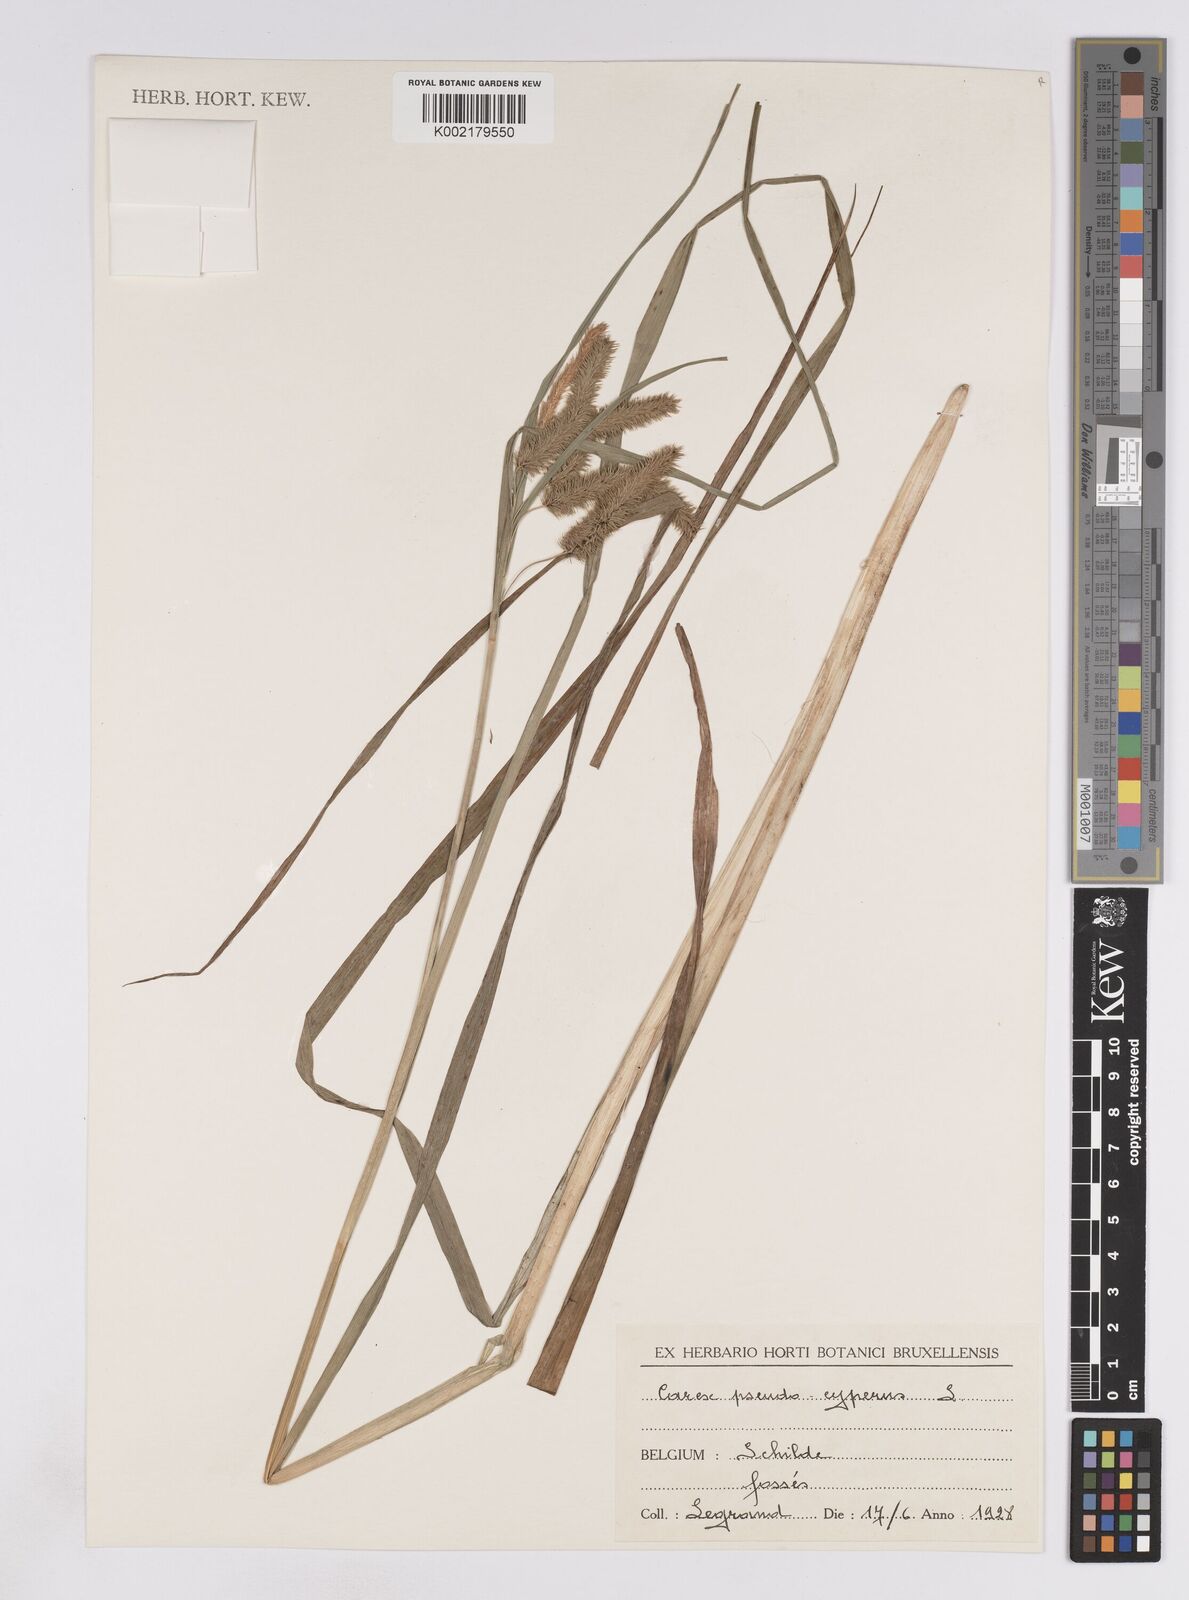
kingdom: Plantae
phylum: Tracheophyta
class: Liliopsida
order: Poales
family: Cyperaceae
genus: Carex
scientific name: Carex pseudocyperus
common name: Cyperus sedge
